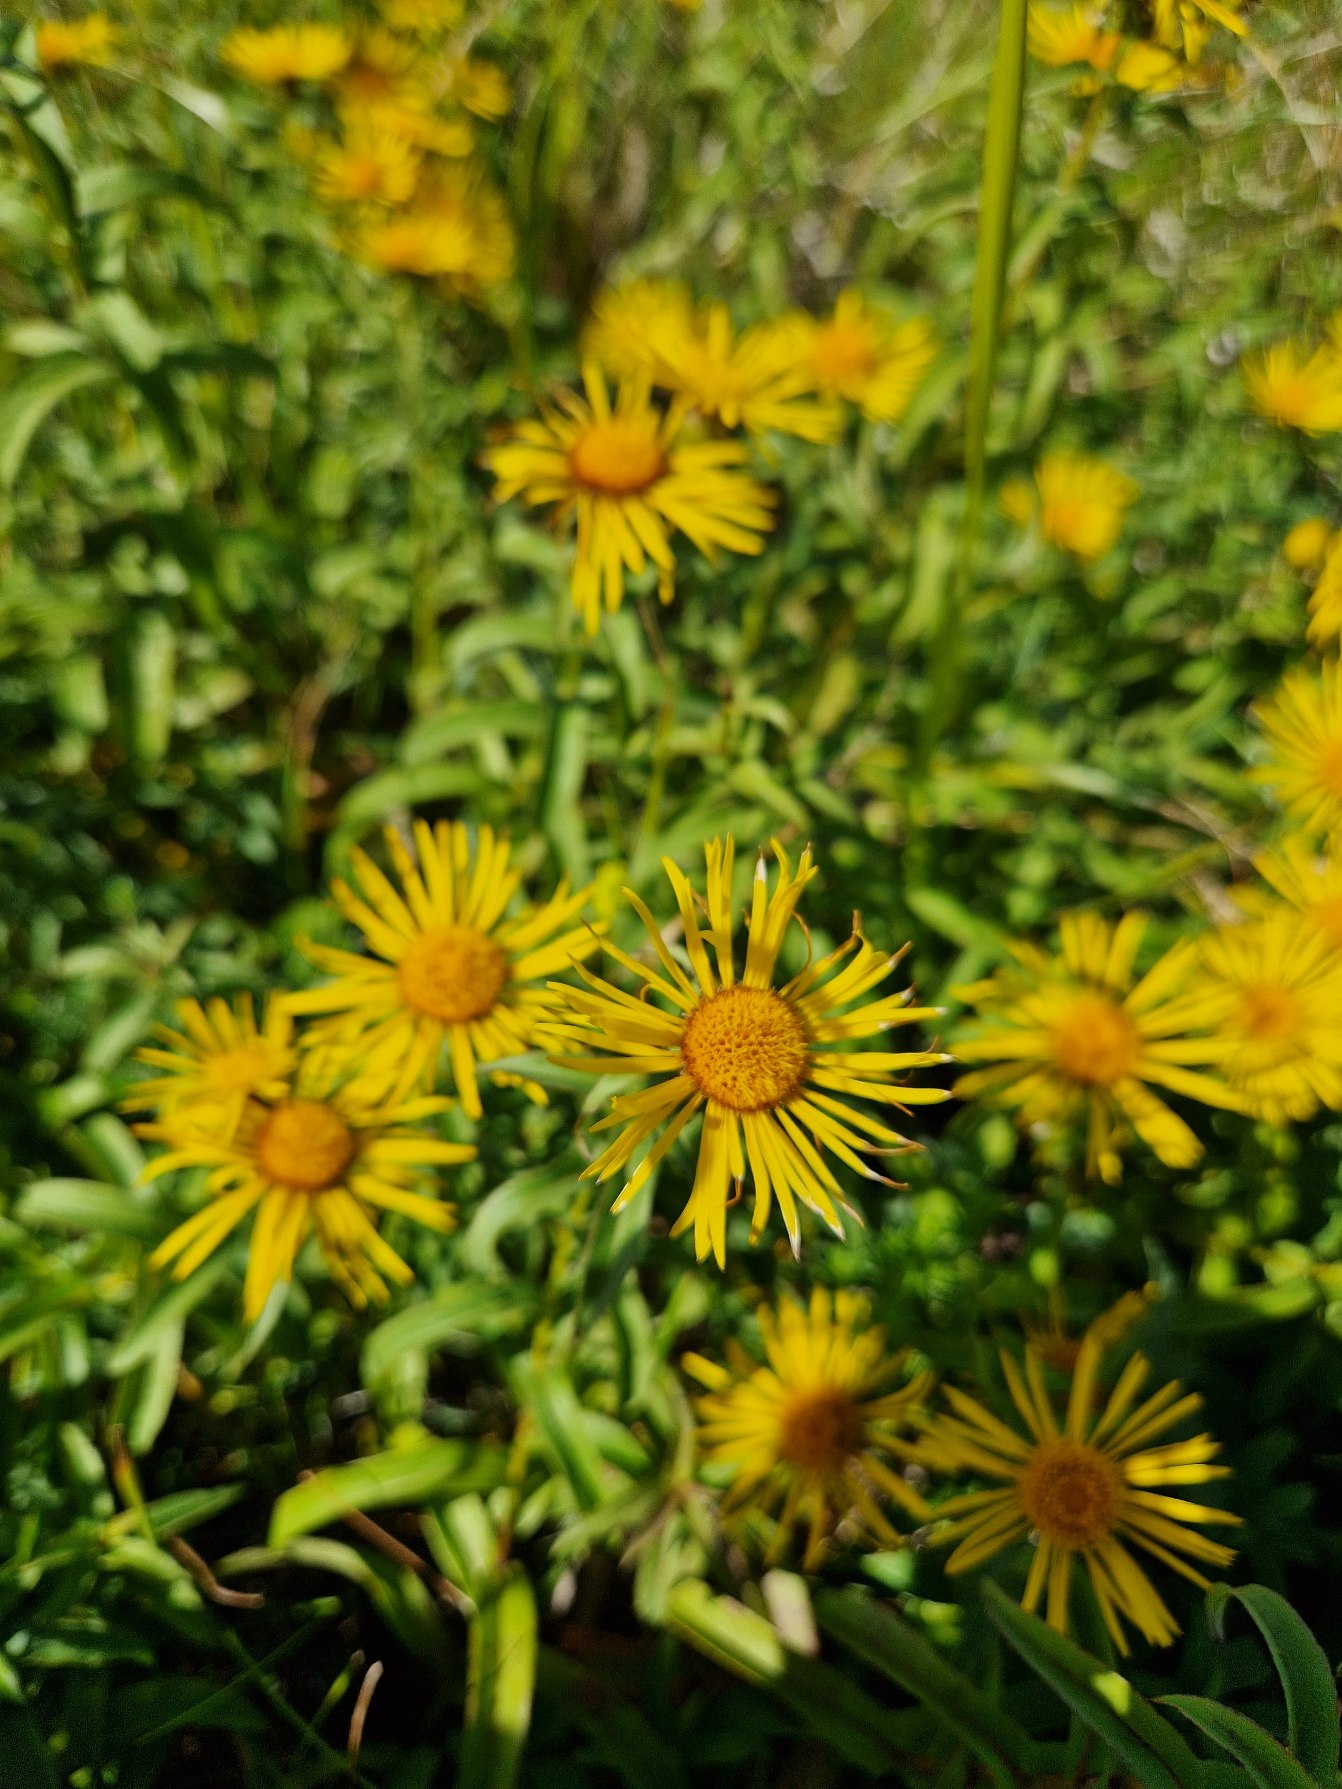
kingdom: Plantae
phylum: Tracheophyta
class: Magnoliopsida
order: Asterales
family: Asteraceae
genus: Pentanema
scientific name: Pentanema britannicum
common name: Soløje-alant
